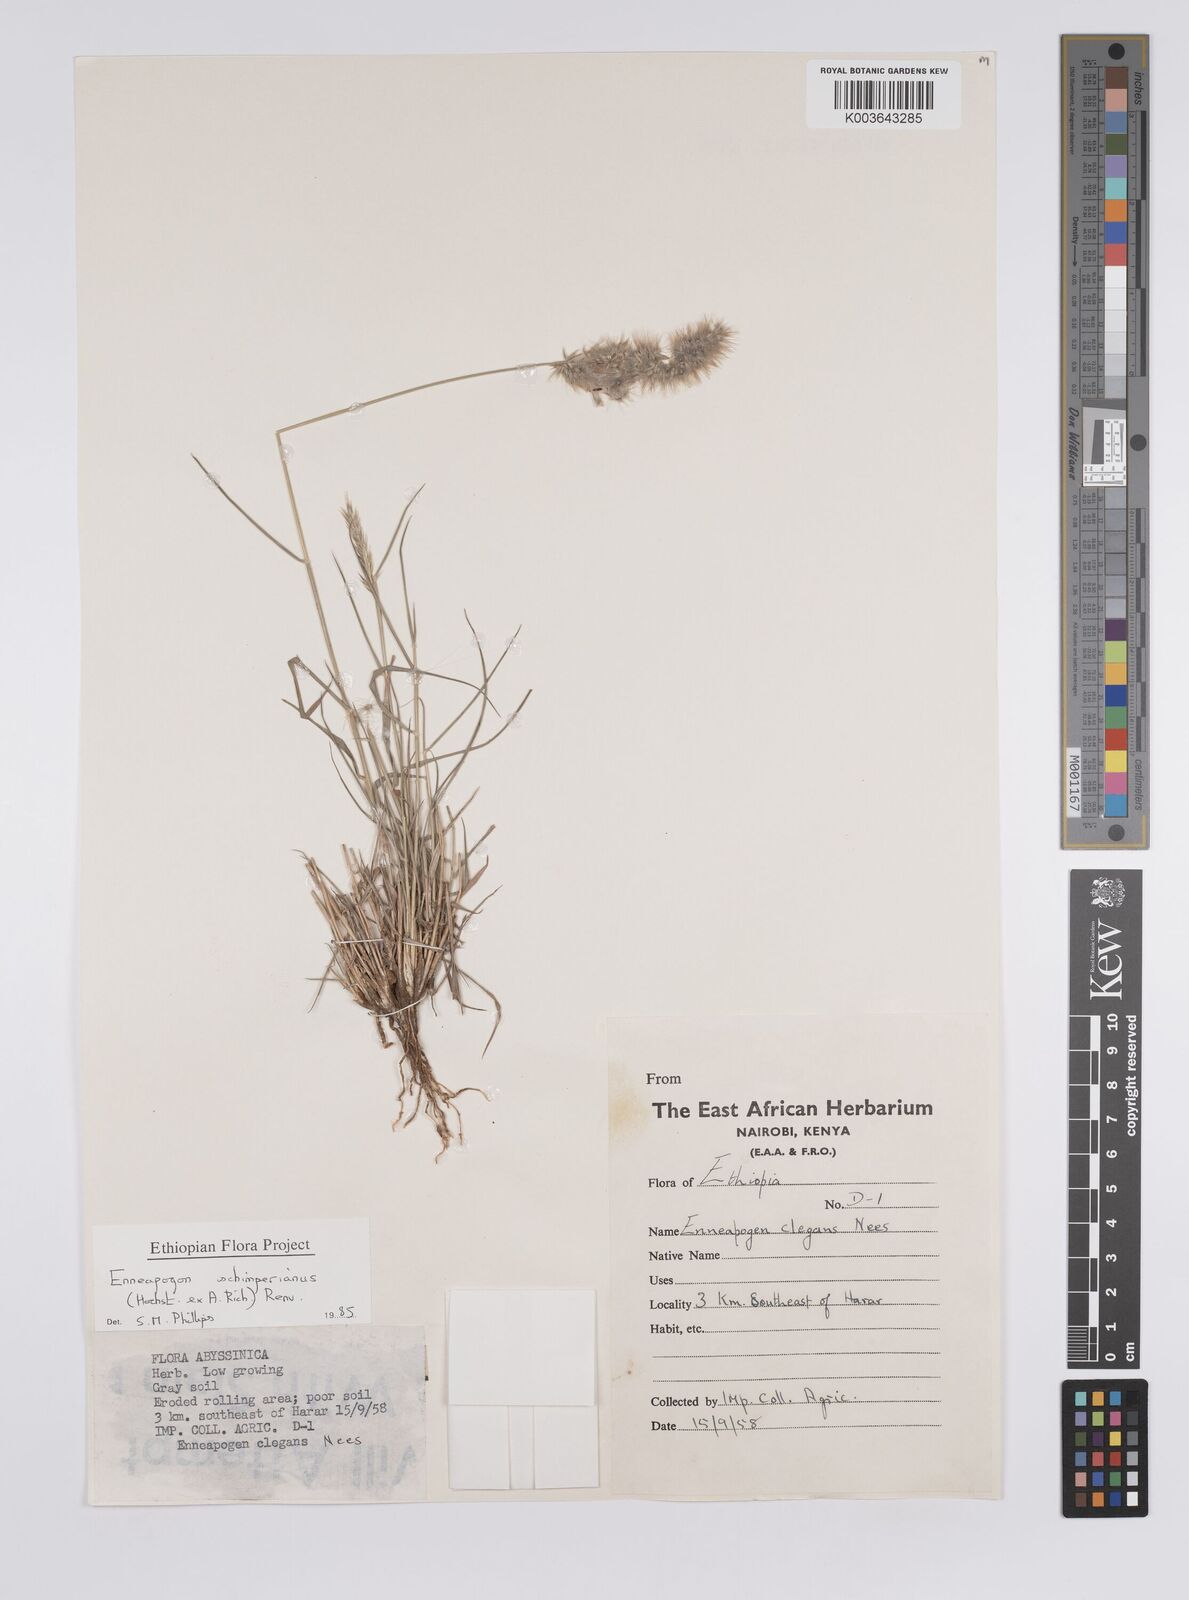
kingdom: Plantae
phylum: Tracheophyta
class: Liliopsida
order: Poales
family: Poaceae
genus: Enneapogon
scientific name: Enneapogon persicus
